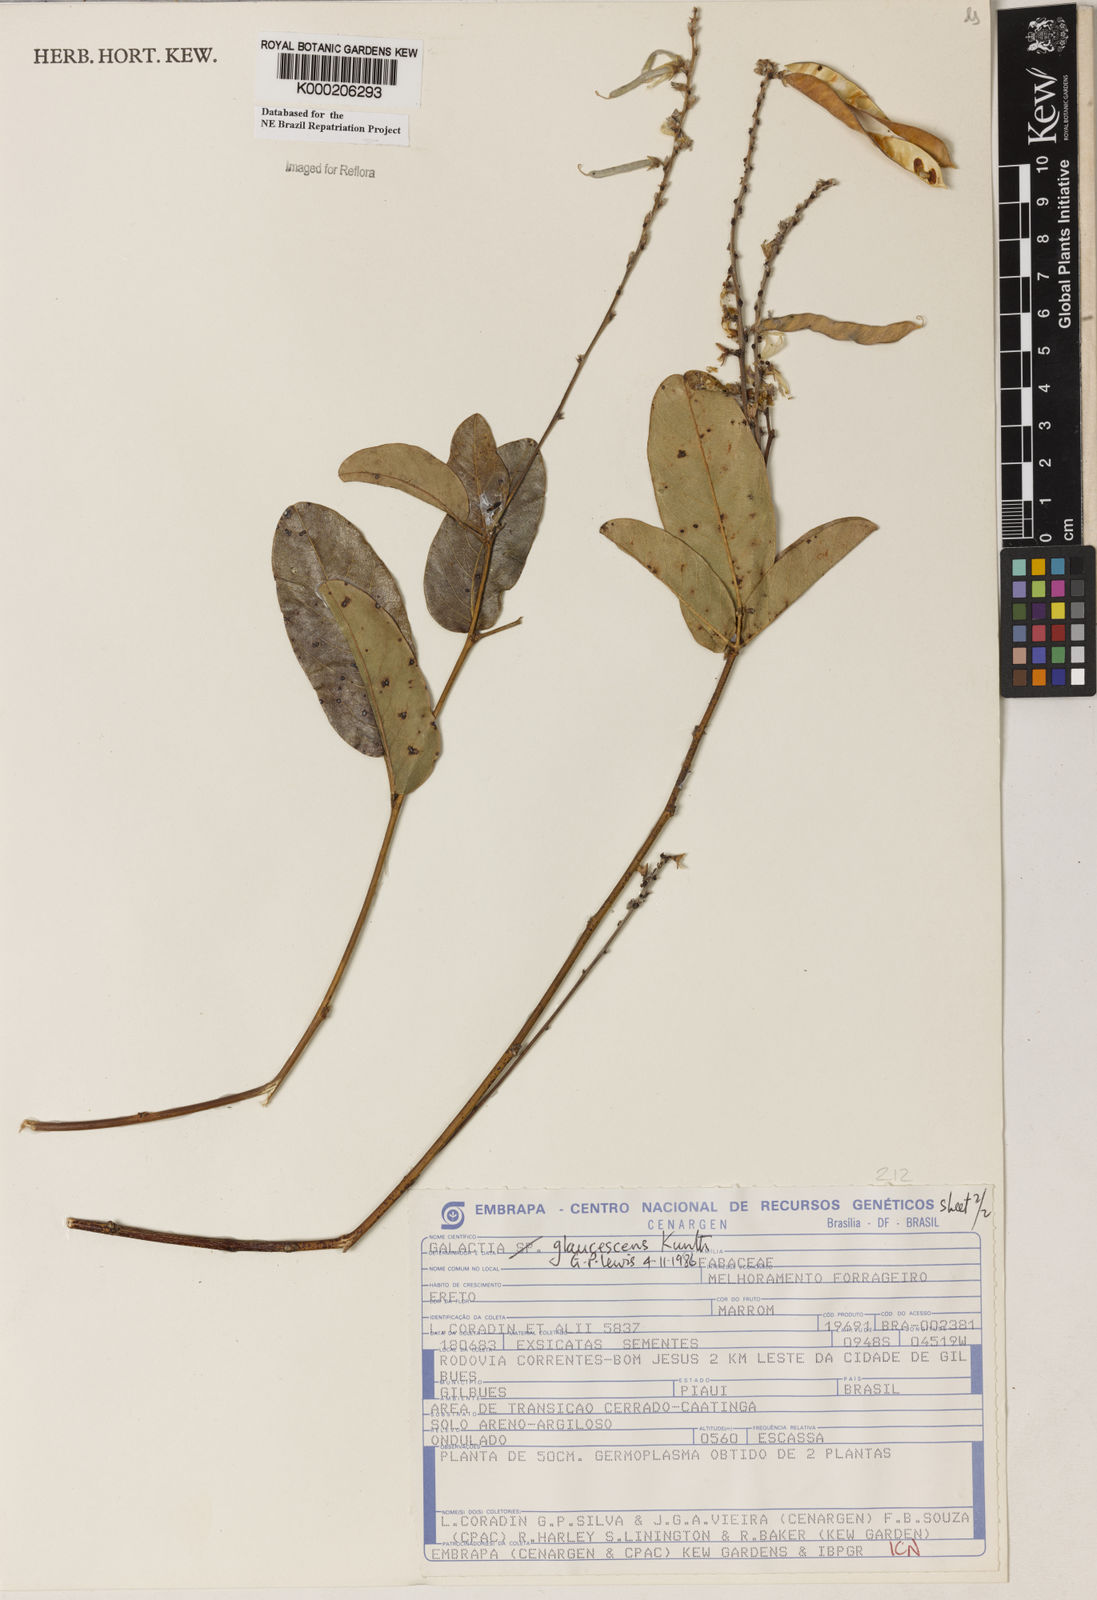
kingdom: Plantae
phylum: Tracheophyta
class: Magnoliopsida
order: Fabales
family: Fabaceae
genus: Galactia
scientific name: Galactia glaucescens
